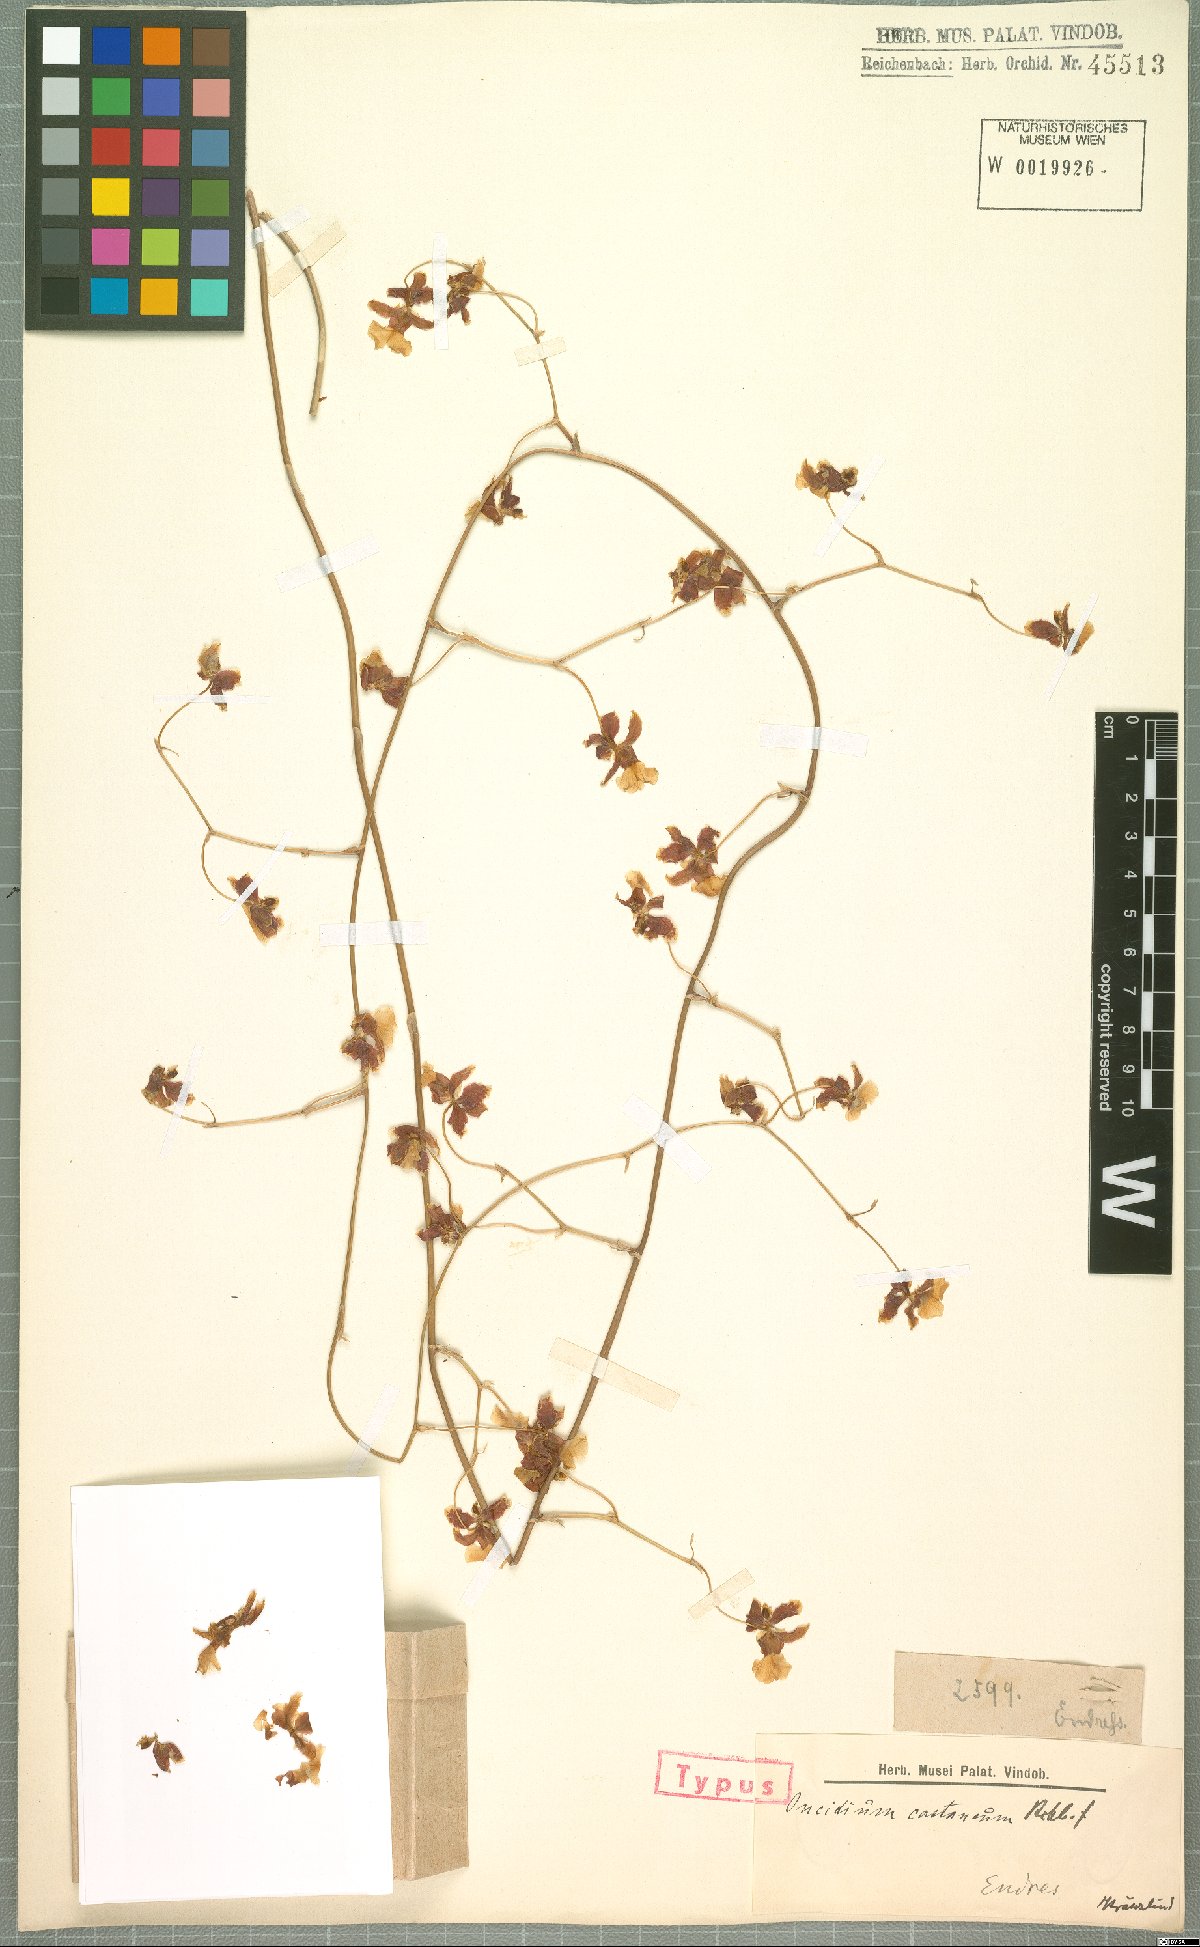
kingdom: Plantae
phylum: Tracheophyta
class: Liliopsida
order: Asparagales
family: Orchidaceae
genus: Oncidium
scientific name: Oncidium dichromaticum
